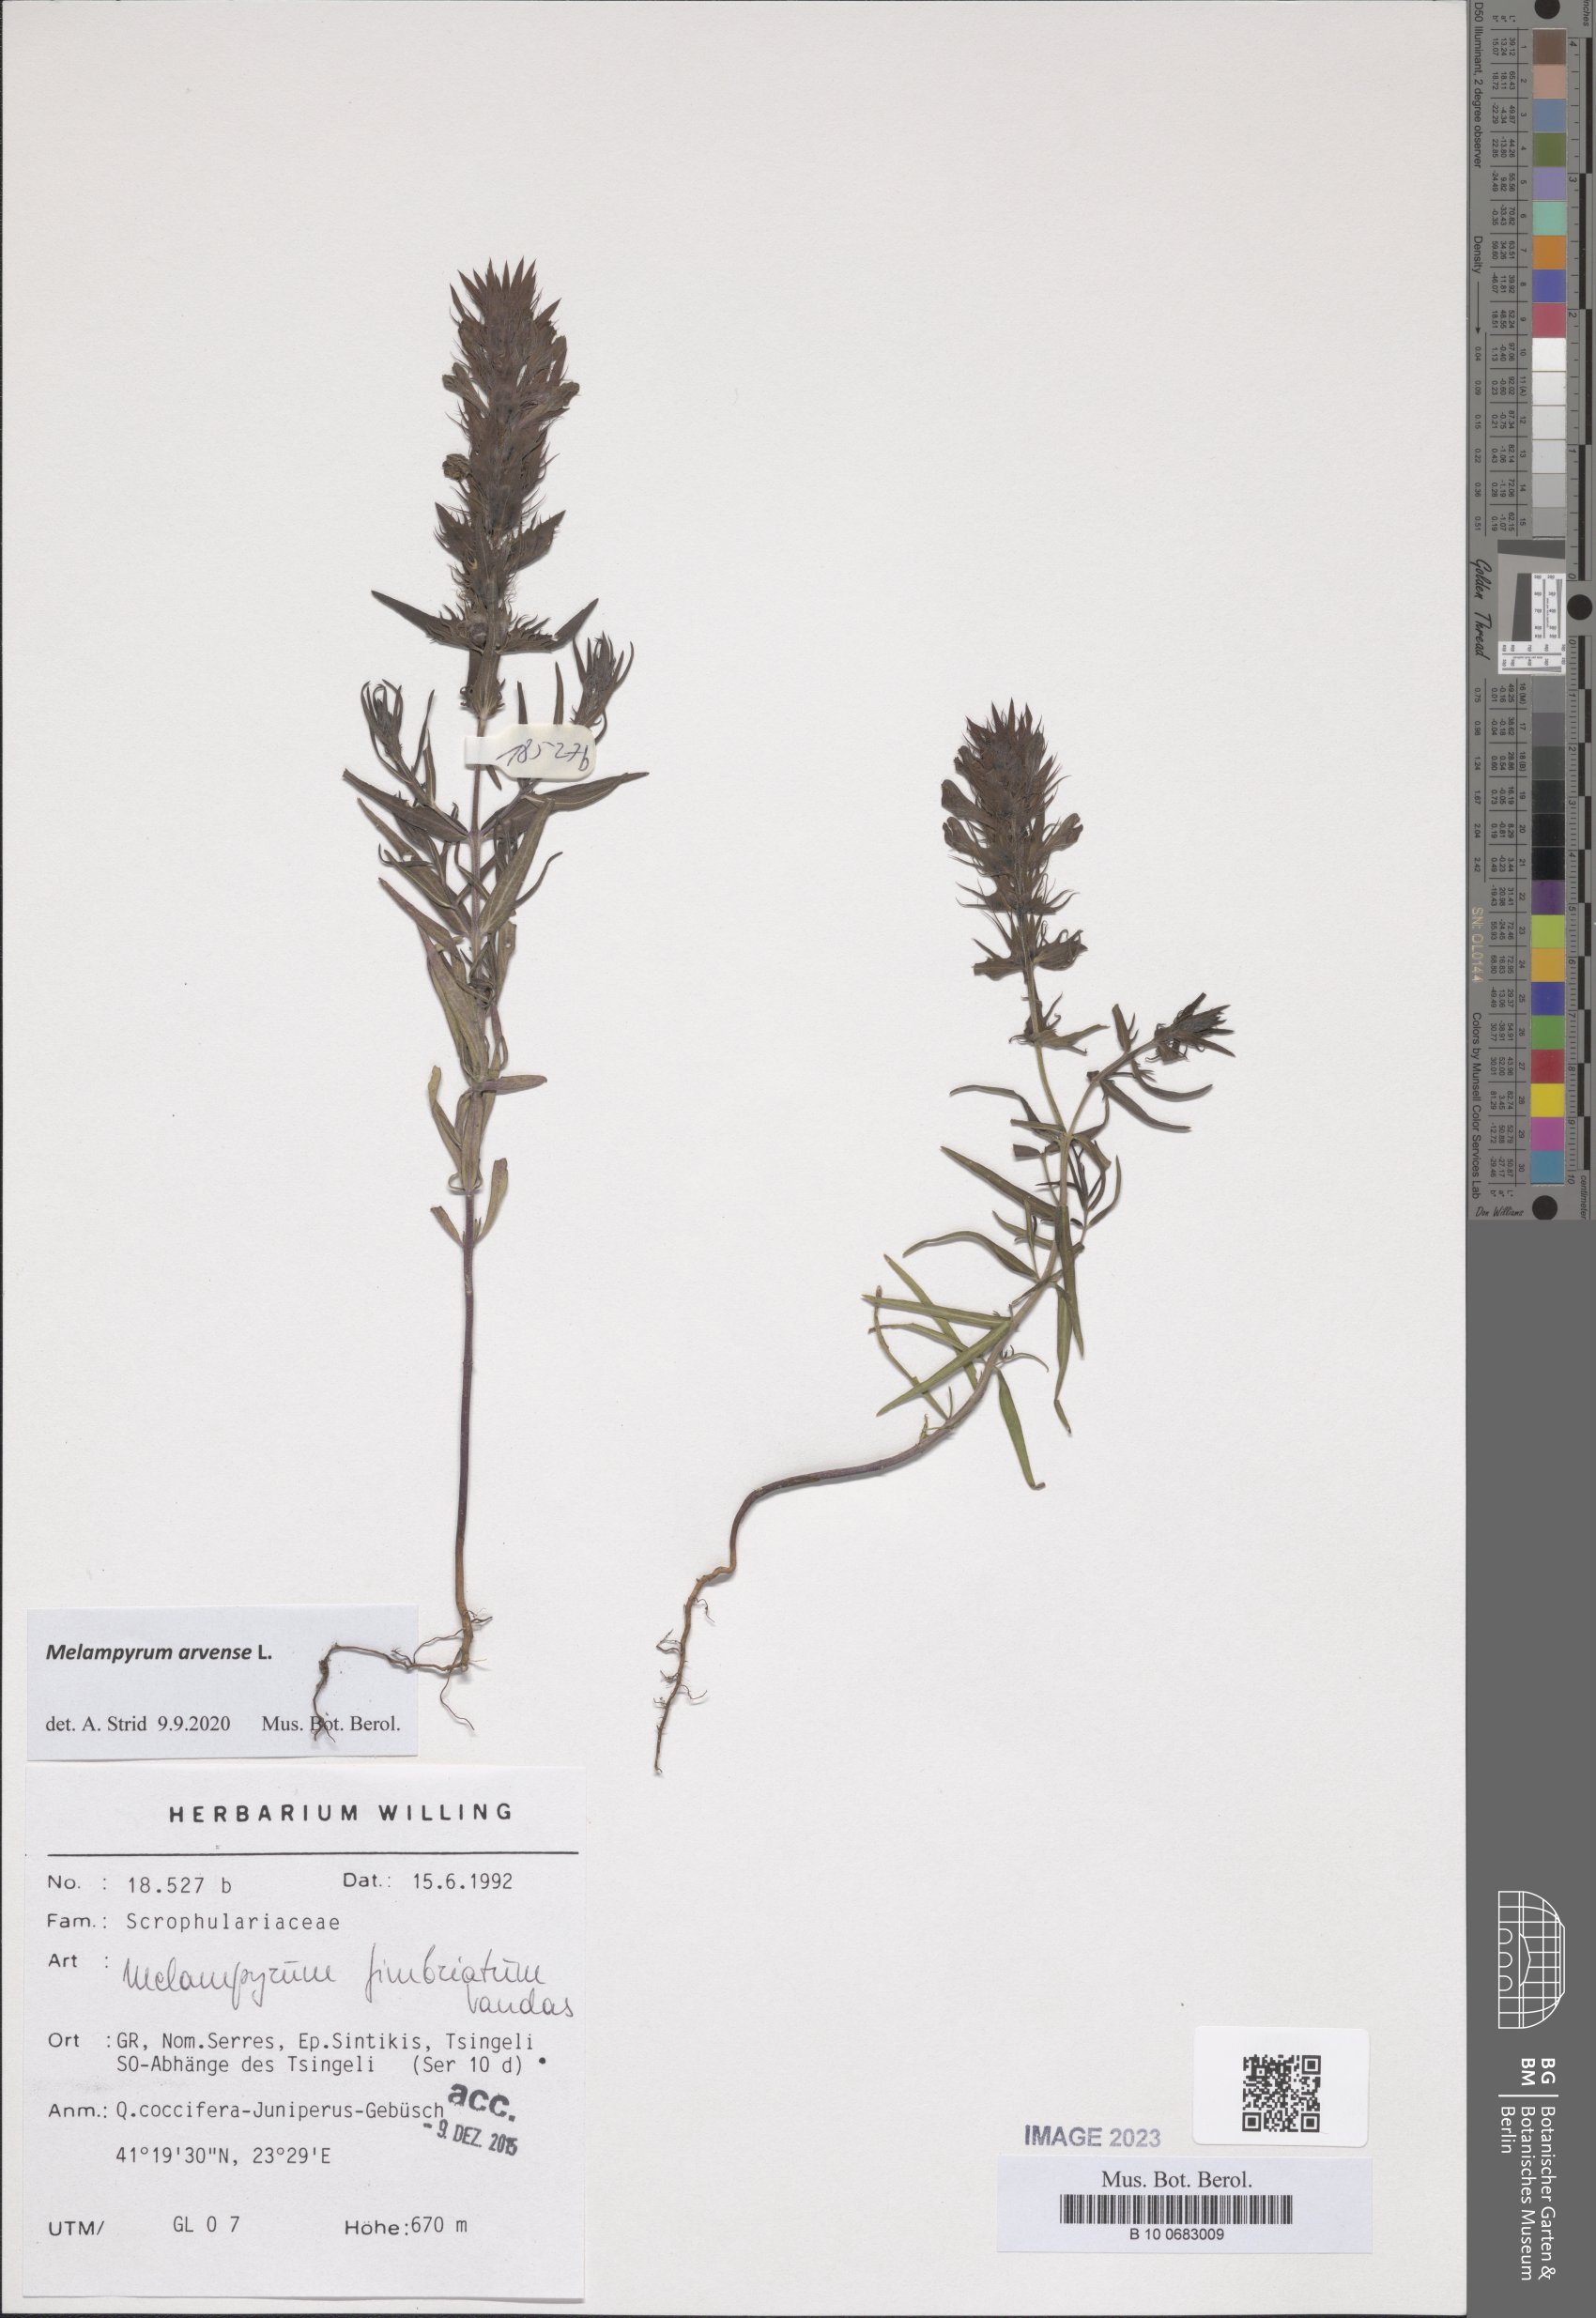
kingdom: Plantae
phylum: Tracheophyta
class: Magnoliopsida
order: Lamiales
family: Orobanchaceae
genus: Melampyrum
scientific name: Melampyrum arvense
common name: Field cow-wheat
